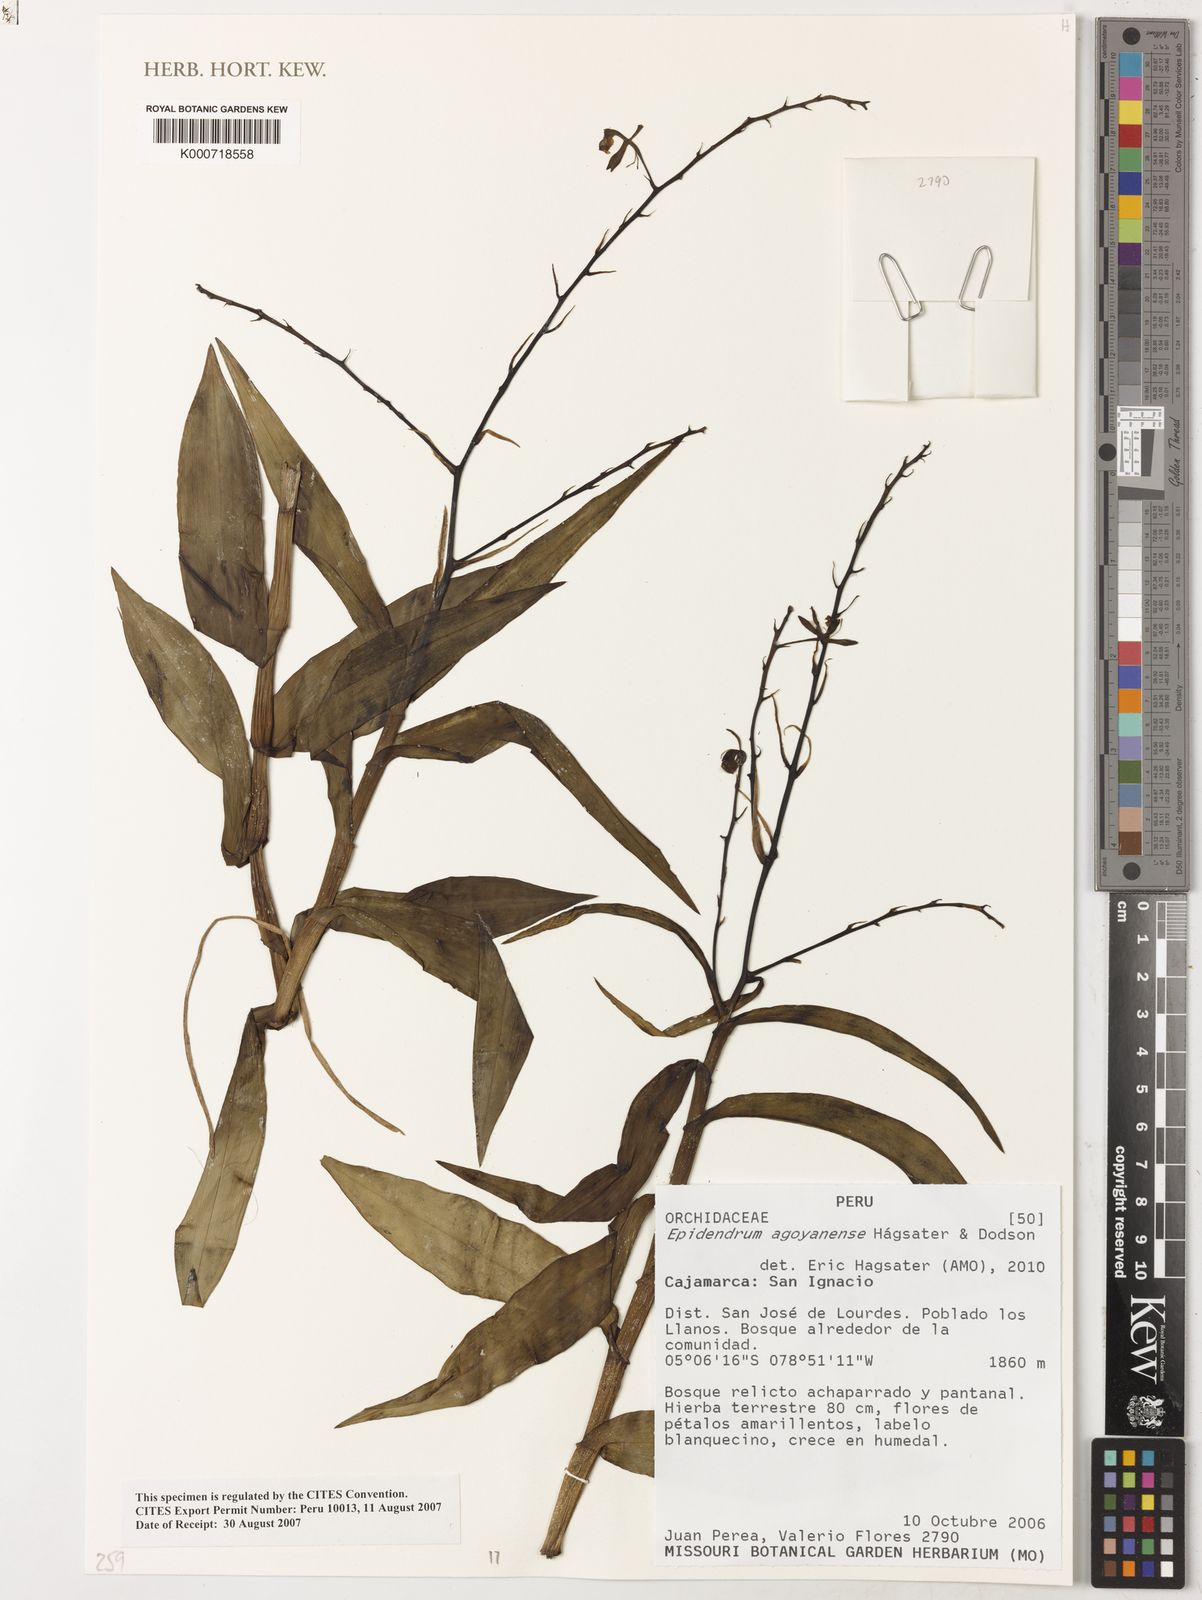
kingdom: Plantae
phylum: Tracheophyta
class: Liliopsida
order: Asparagales
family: Orchidaceae
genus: Epidendrum
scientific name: Epidendrum
